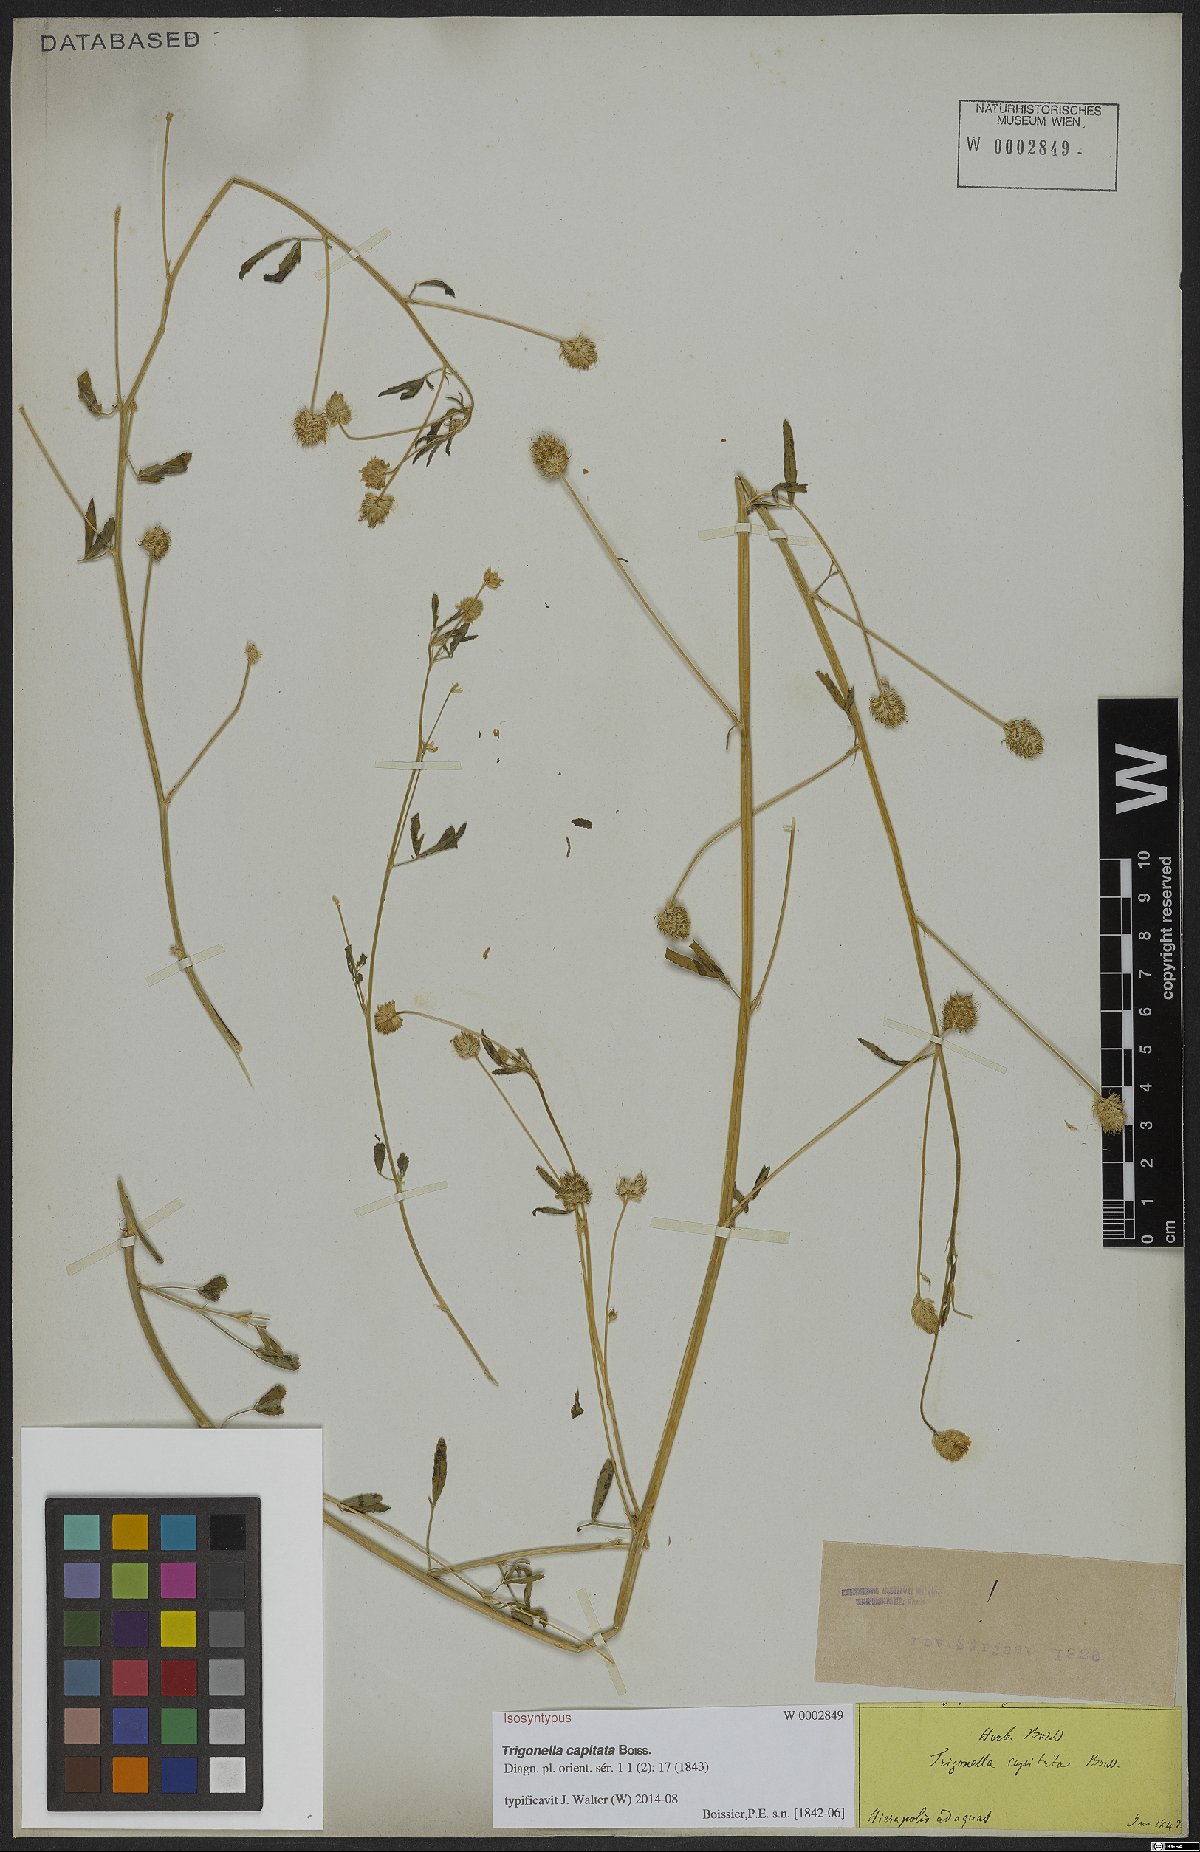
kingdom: Plantae
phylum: Tracheophyta
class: Magnoliopsida
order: Fabales
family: Fabaceae
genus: Trigonella
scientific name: Trigonella capitata
